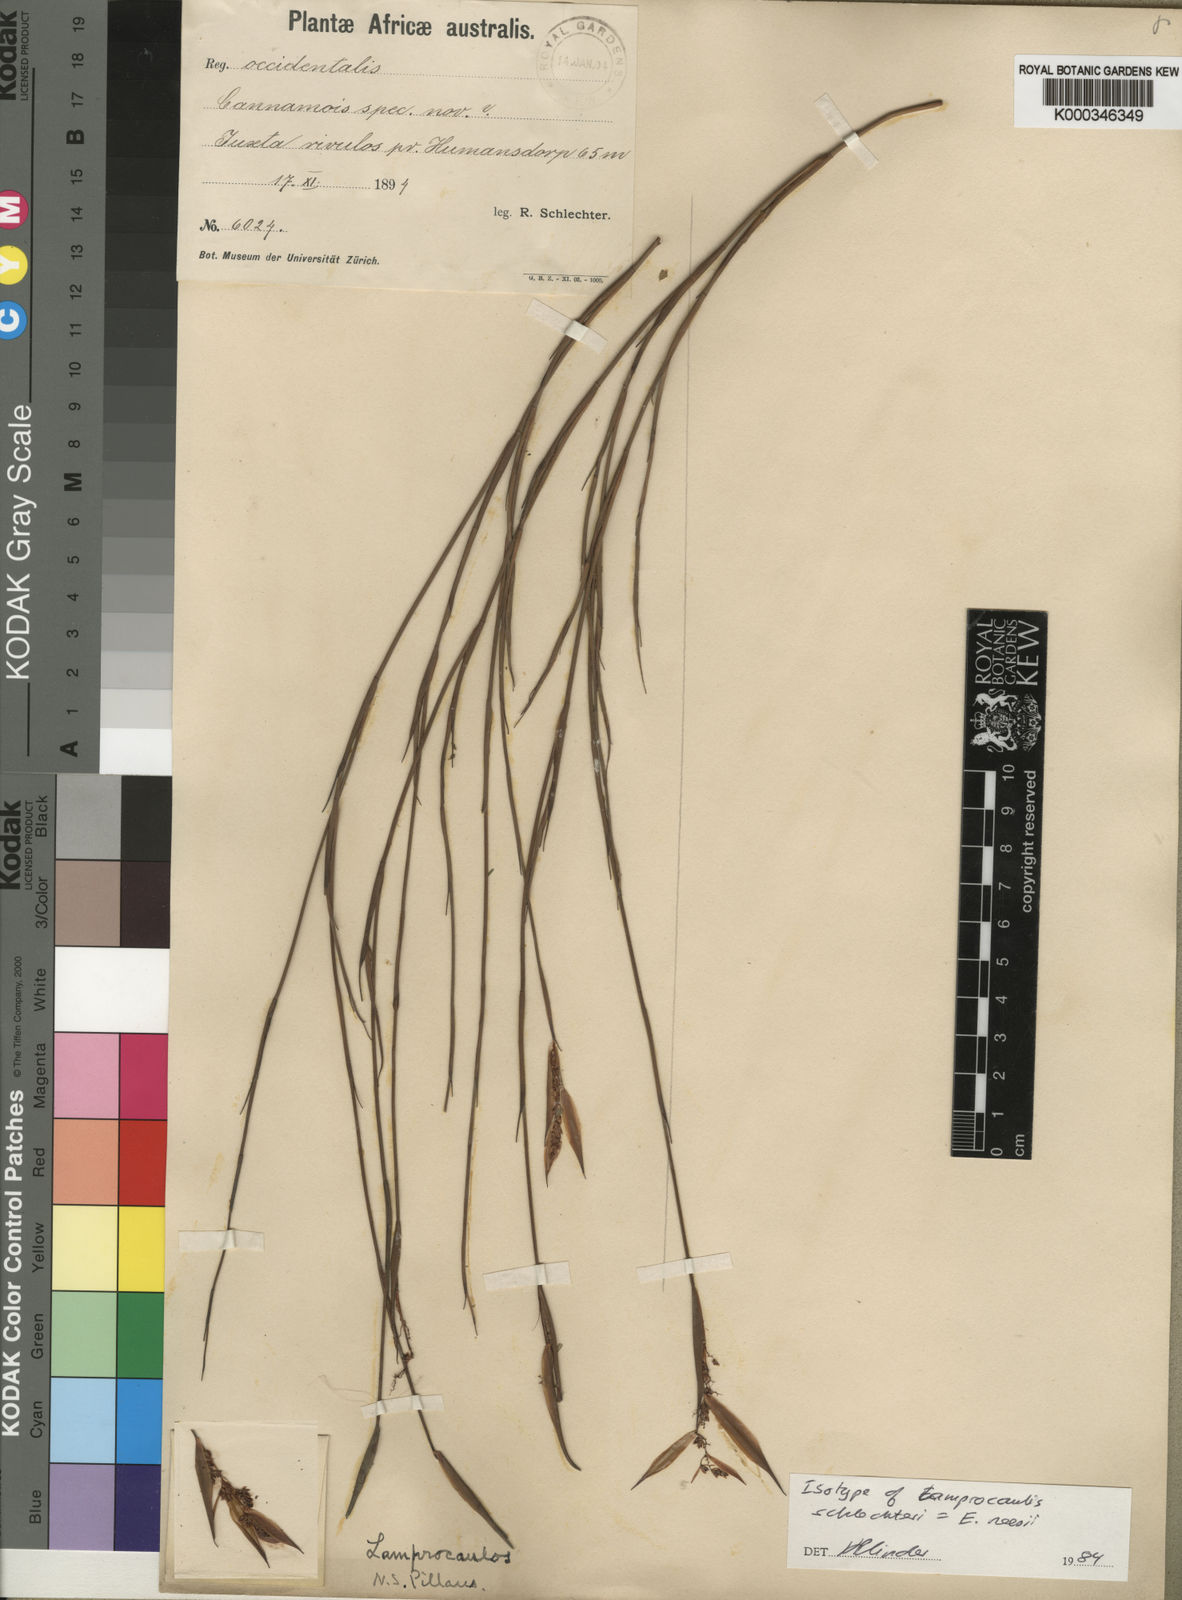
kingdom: Plantae
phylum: Tracheophyta
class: Liliopsida
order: Poales
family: Restionaceae
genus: Elegia
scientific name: Elegia neesii
